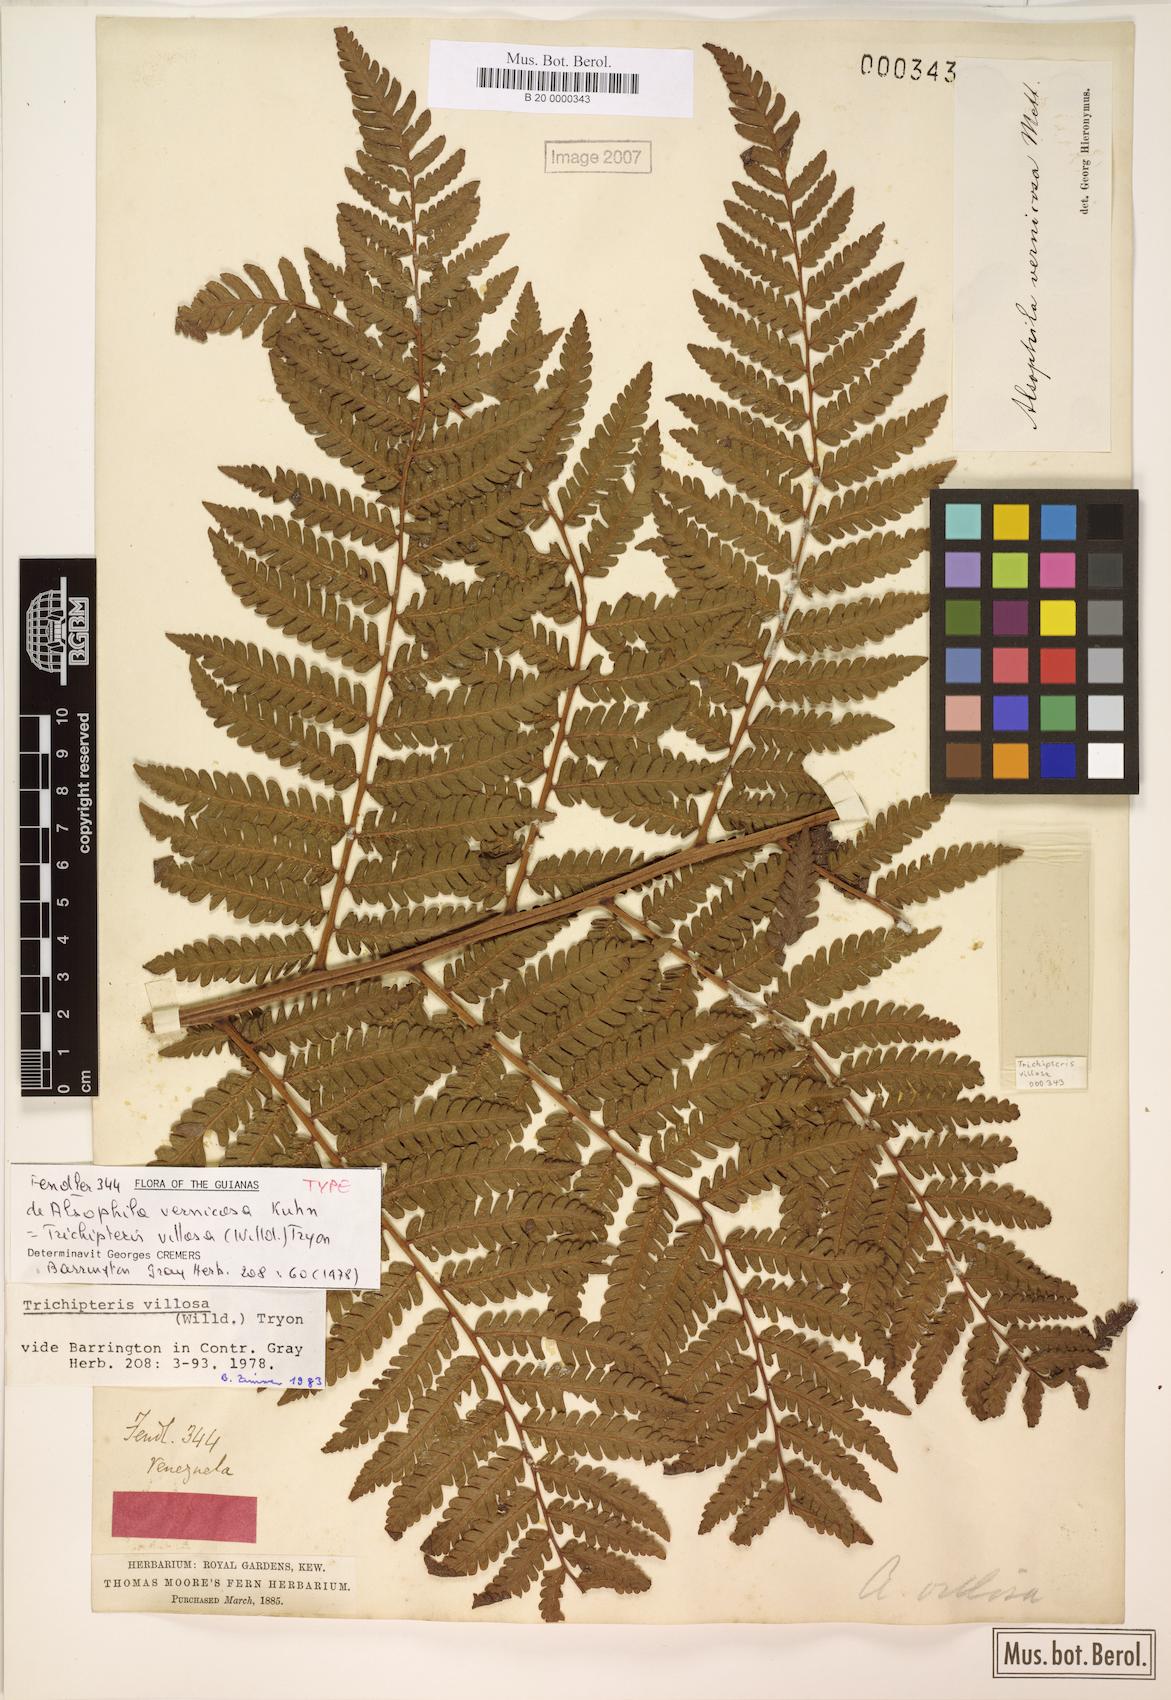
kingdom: Plantae
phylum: Tracheophyta
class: Polypodiopsida
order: Cyatheales
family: Cyatheaceae
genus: Cyathea
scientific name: Cyathea villosa
